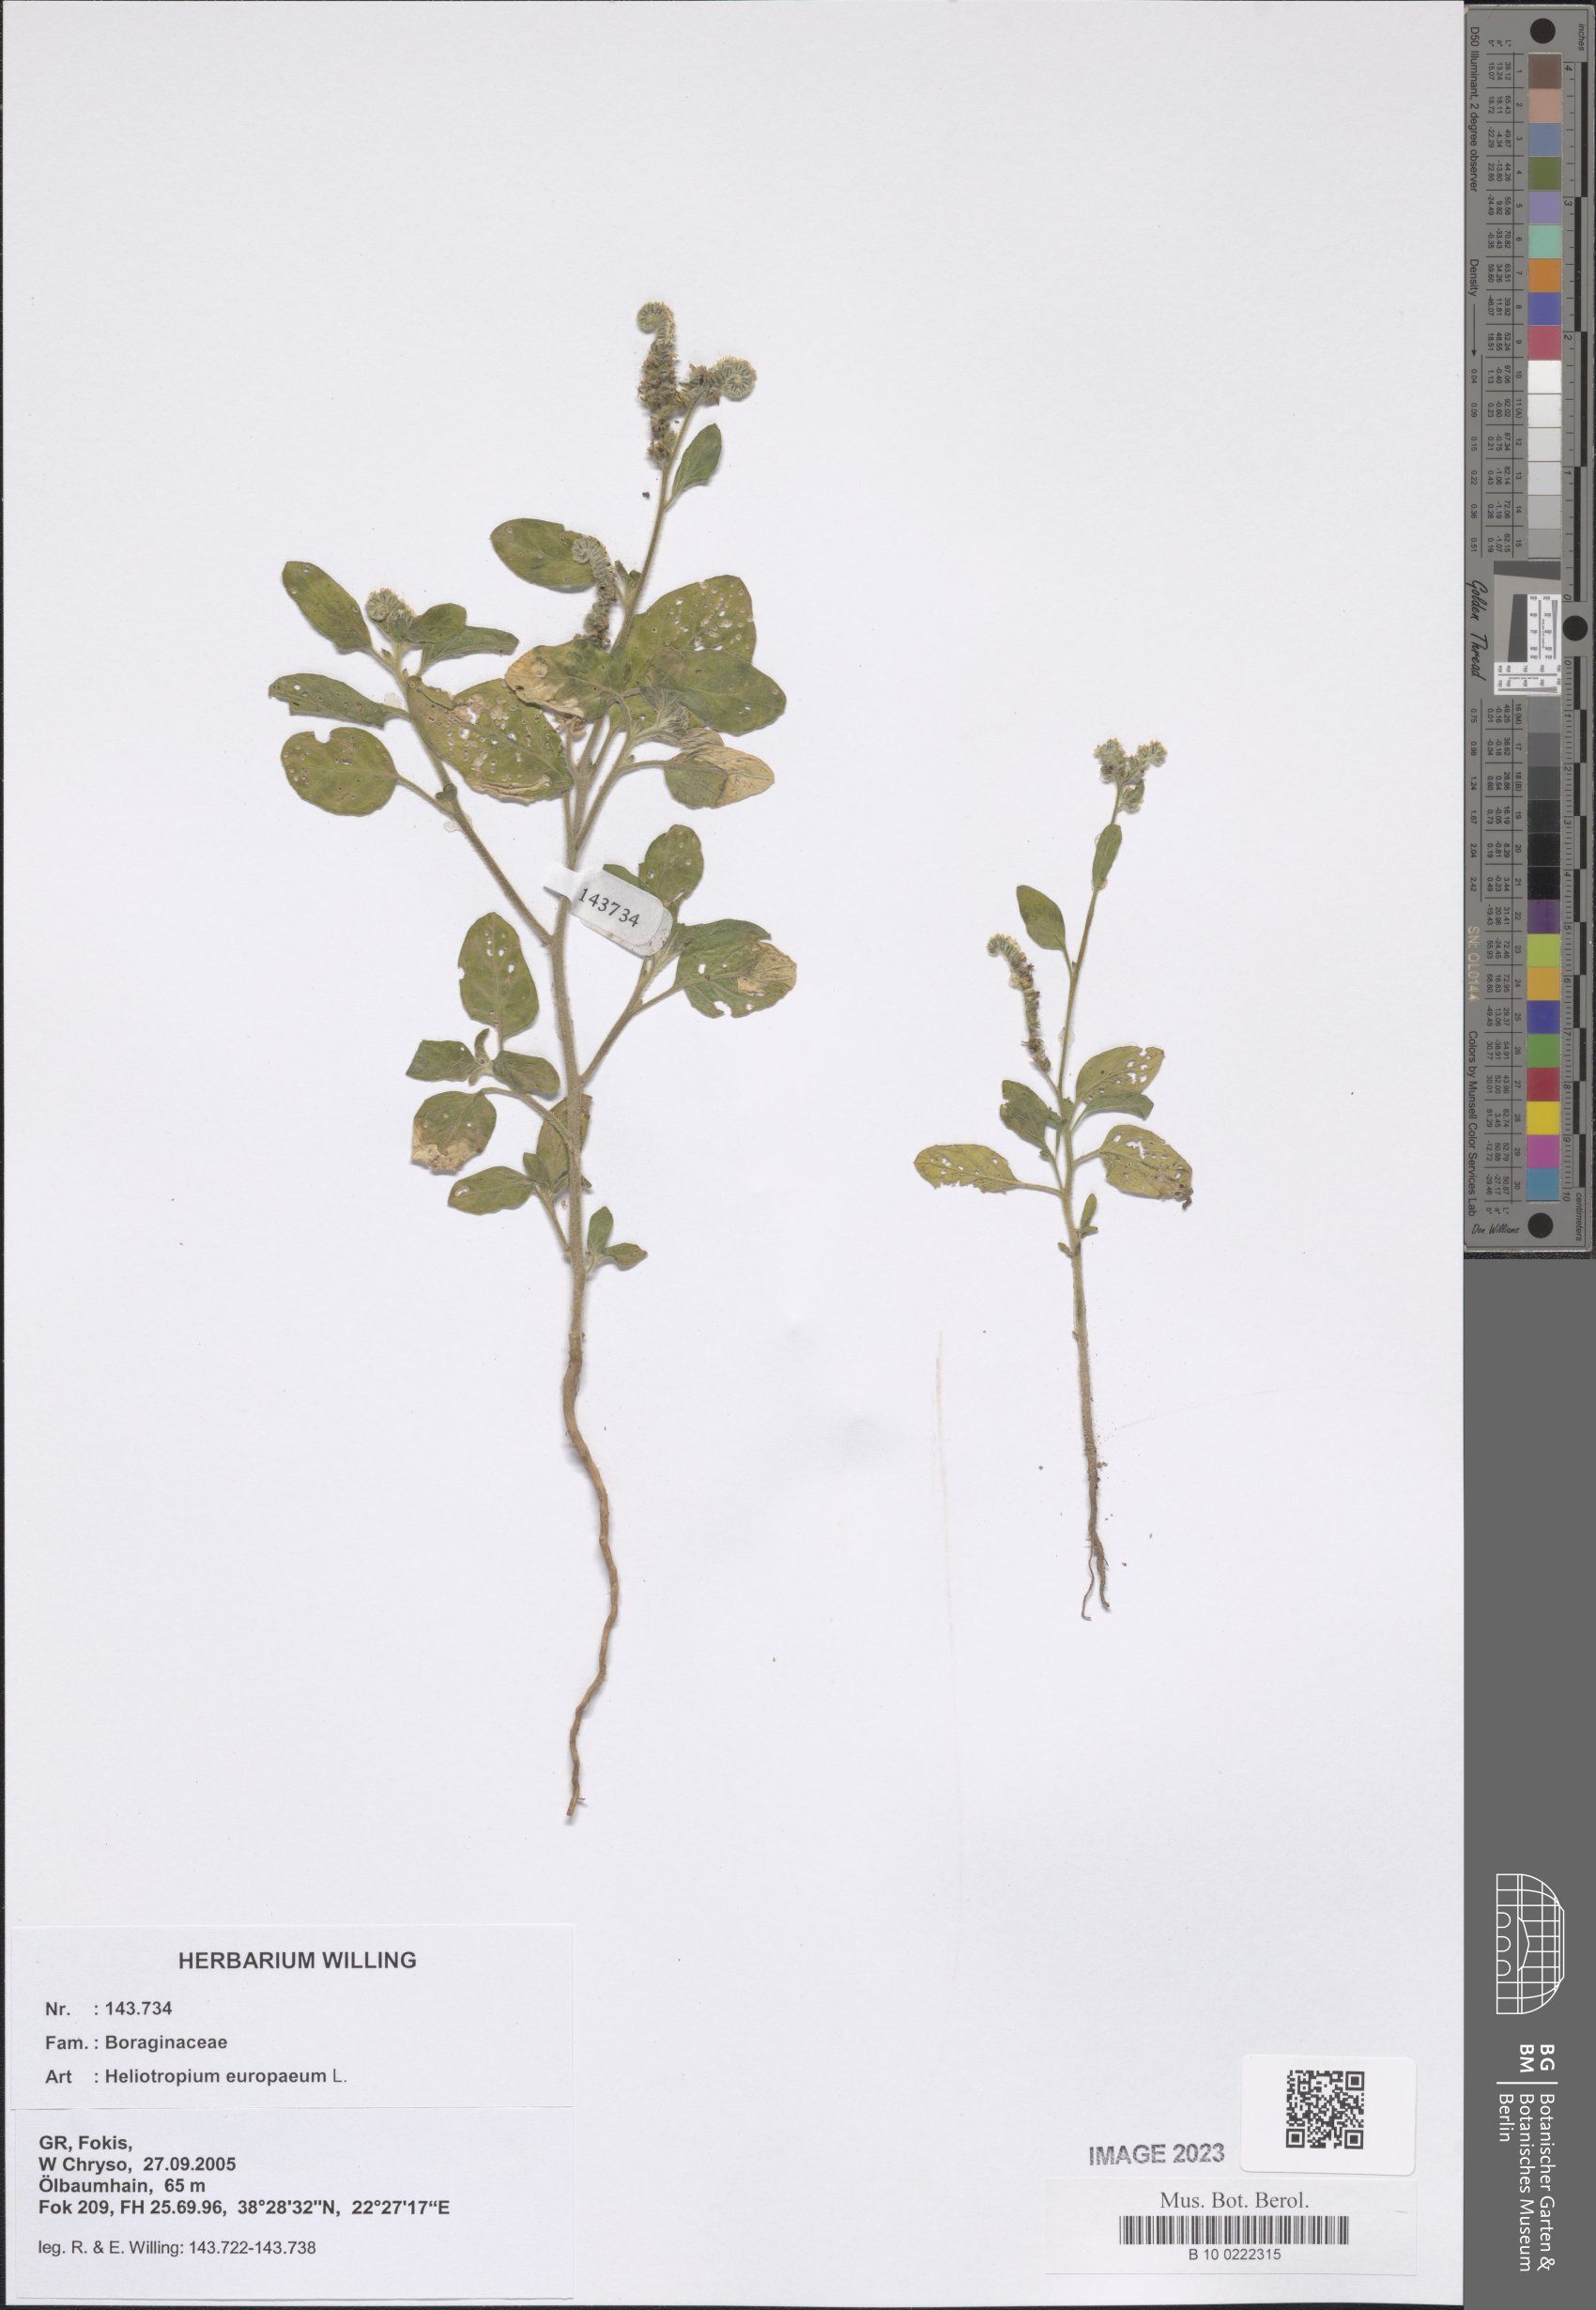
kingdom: Plantae
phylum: Tracheophyta
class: Magnoliopsida
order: Boraginales
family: Heliotropiaceae
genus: Heliotropium
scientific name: Heliotropium europaeum
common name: European heliotrope
